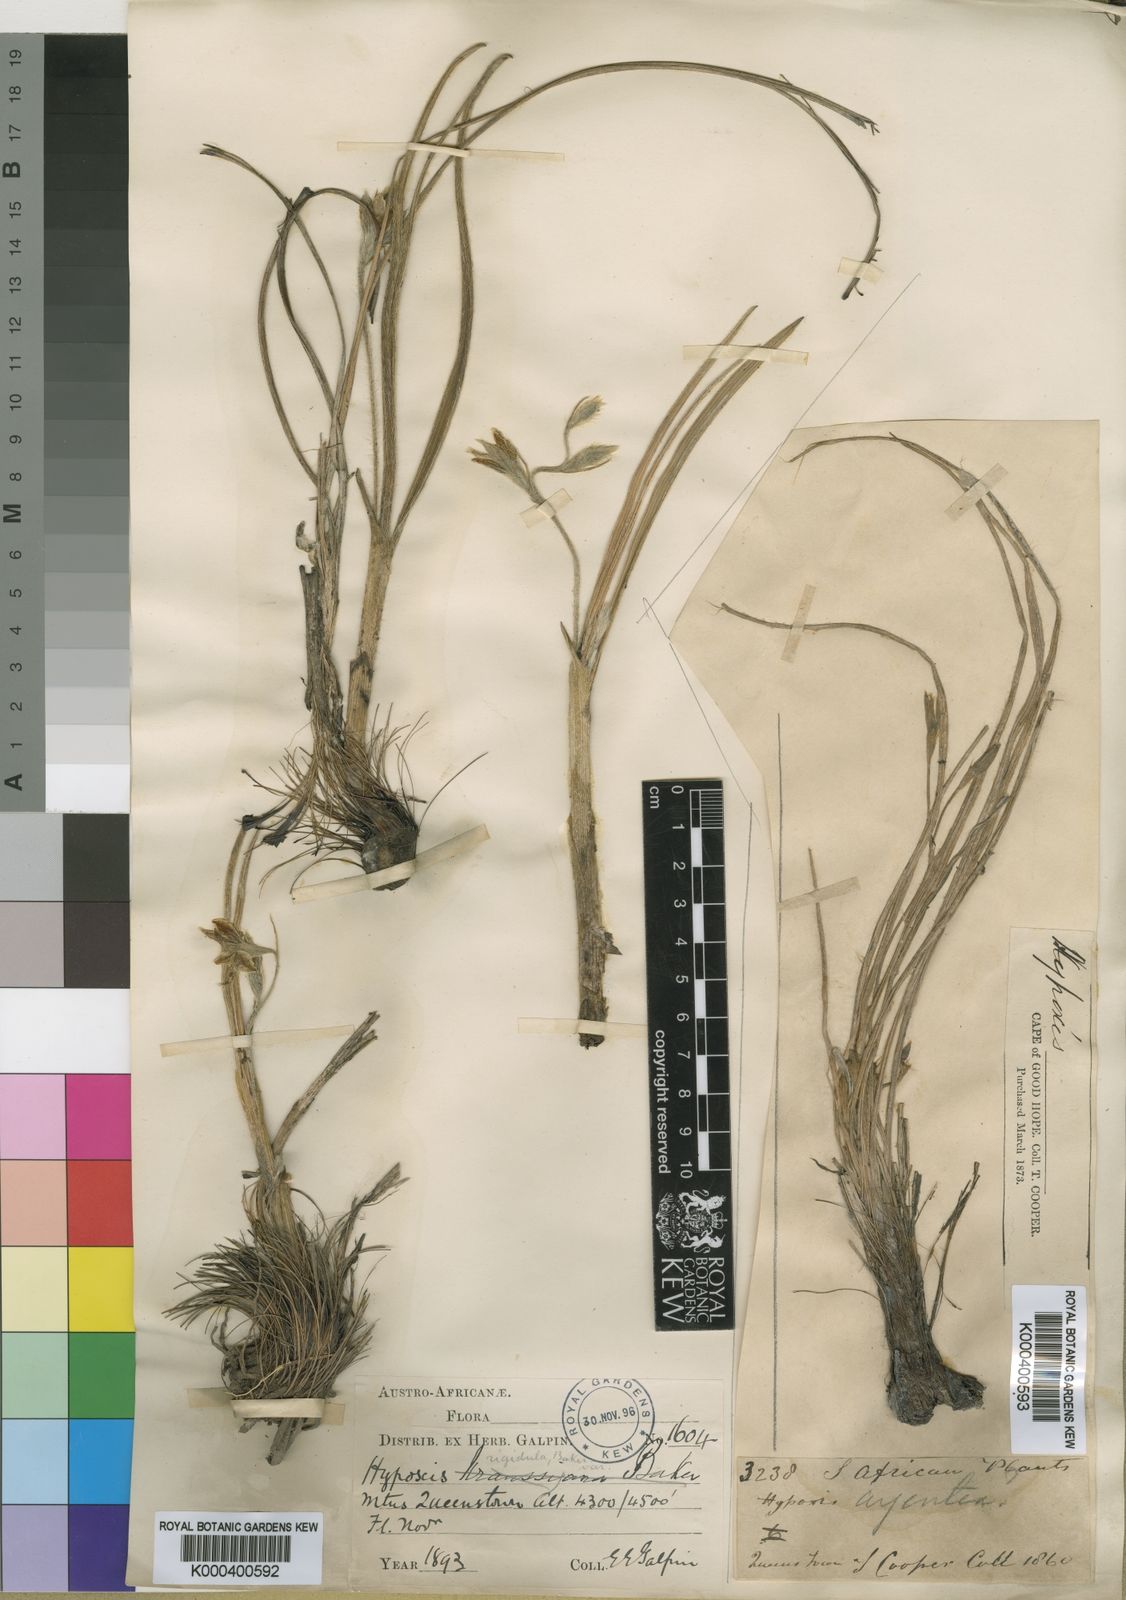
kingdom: Plantae
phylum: Tracheophyta
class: Liliopsida
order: Asparagales
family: Hypoxidaceae
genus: Hypoxis
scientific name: Hypoxis argentea
